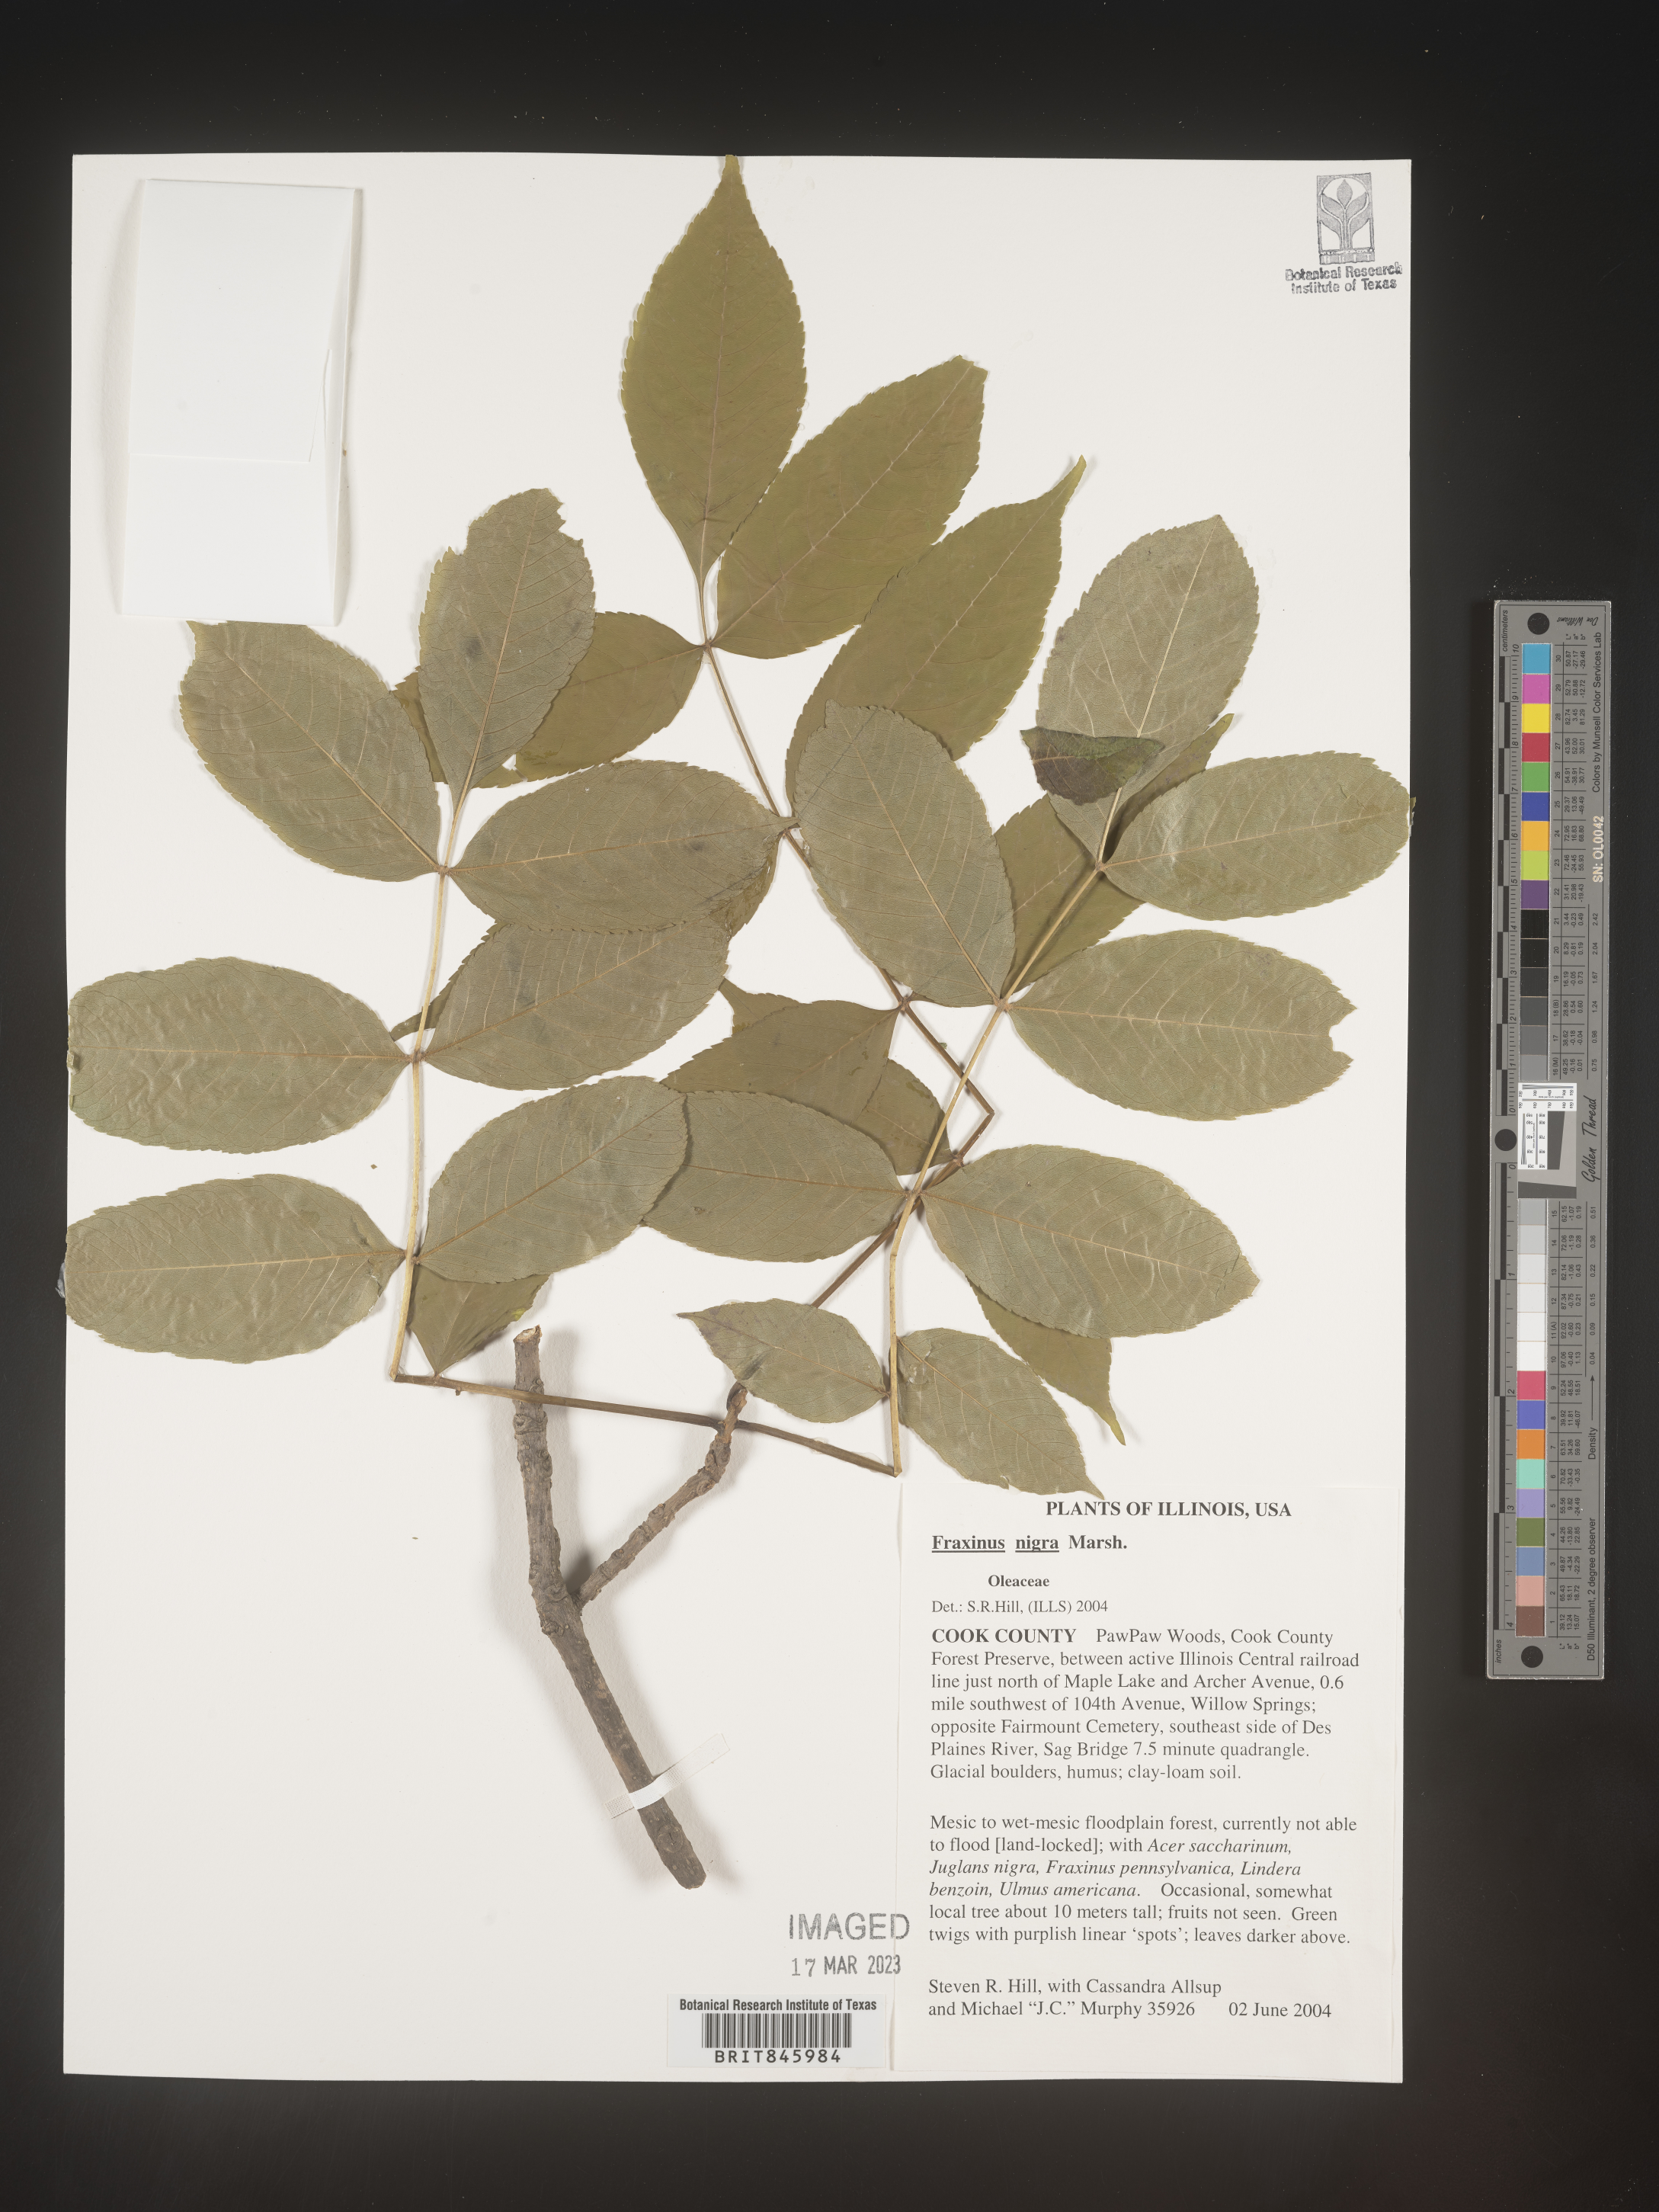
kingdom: Plantae
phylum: Tracheophyta
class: Magnoliopsida
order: Lamiales
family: Oleaceae
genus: Fraxinus
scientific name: Fraxinus nigra
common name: Black ash
